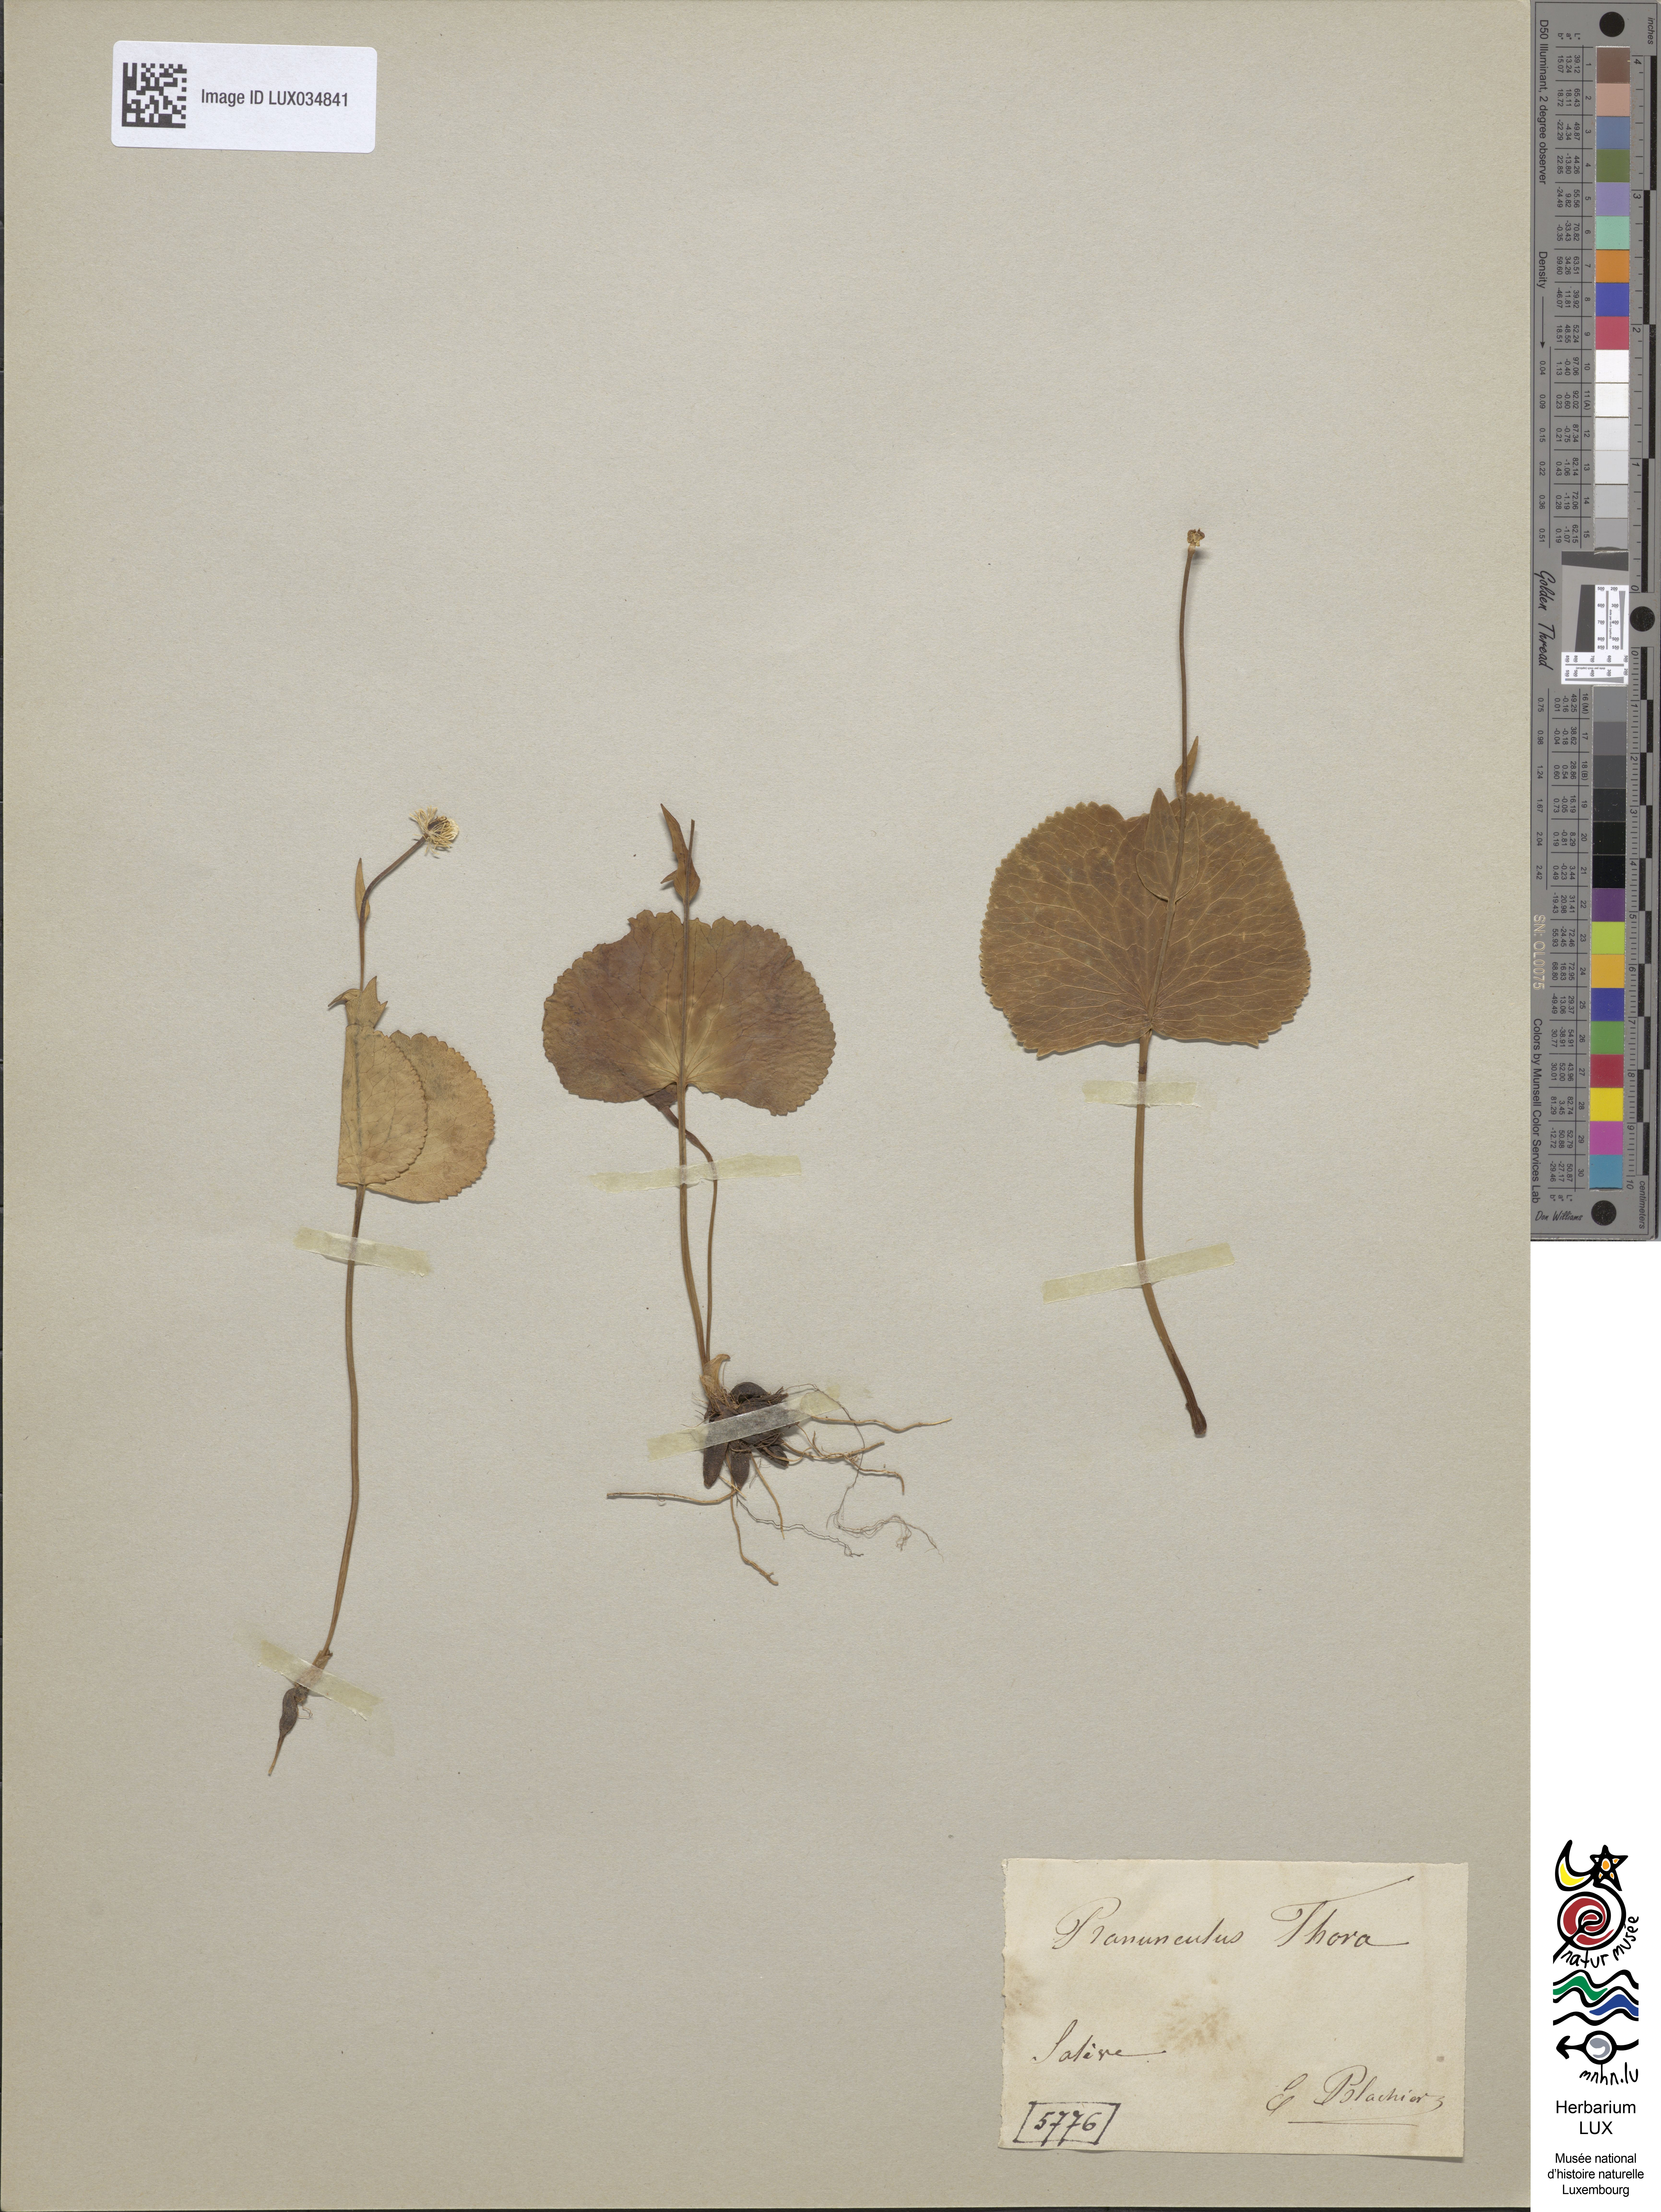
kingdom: Plantae
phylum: Tracheophyta
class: Magnoliopsida
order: Ranunculales
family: Ranunculaceae
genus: Ranunculus
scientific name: Ranunculus thora
